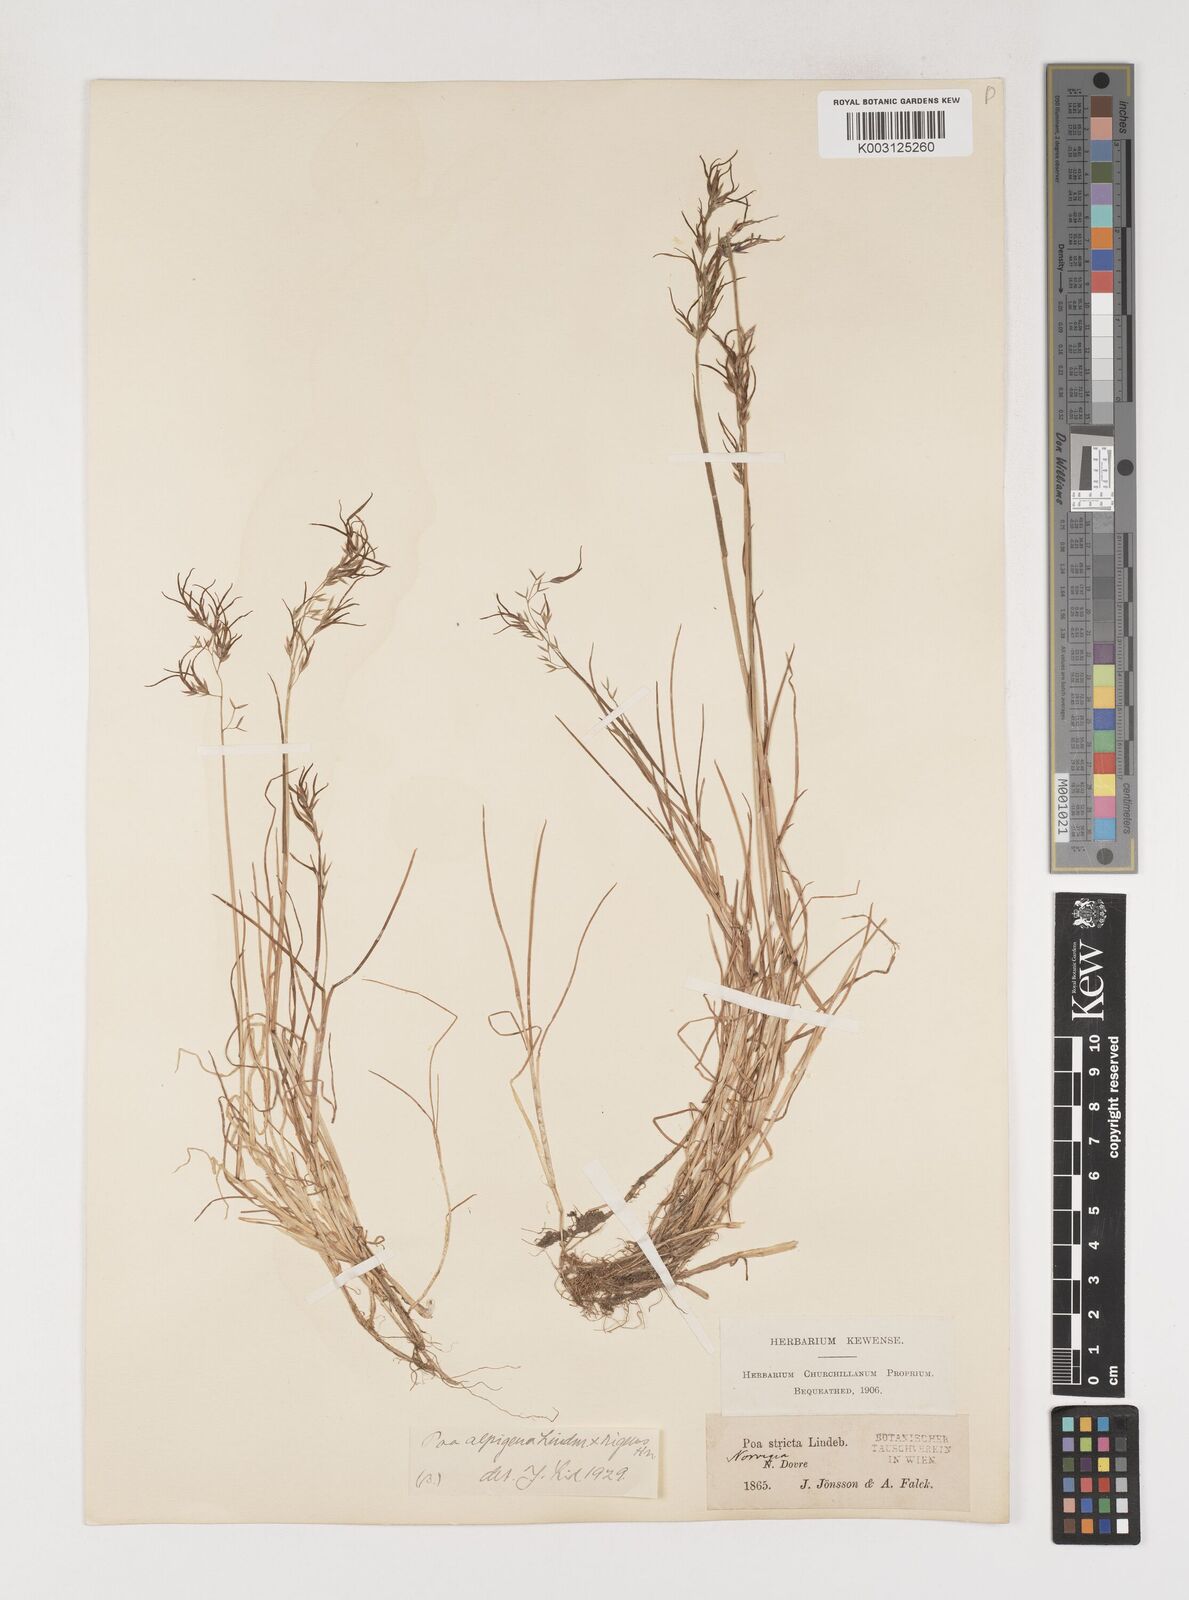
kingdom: Plantae
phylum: Tracheophyta
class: Liliopsida
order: Poales
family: Poaceae
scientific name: Poaceae
